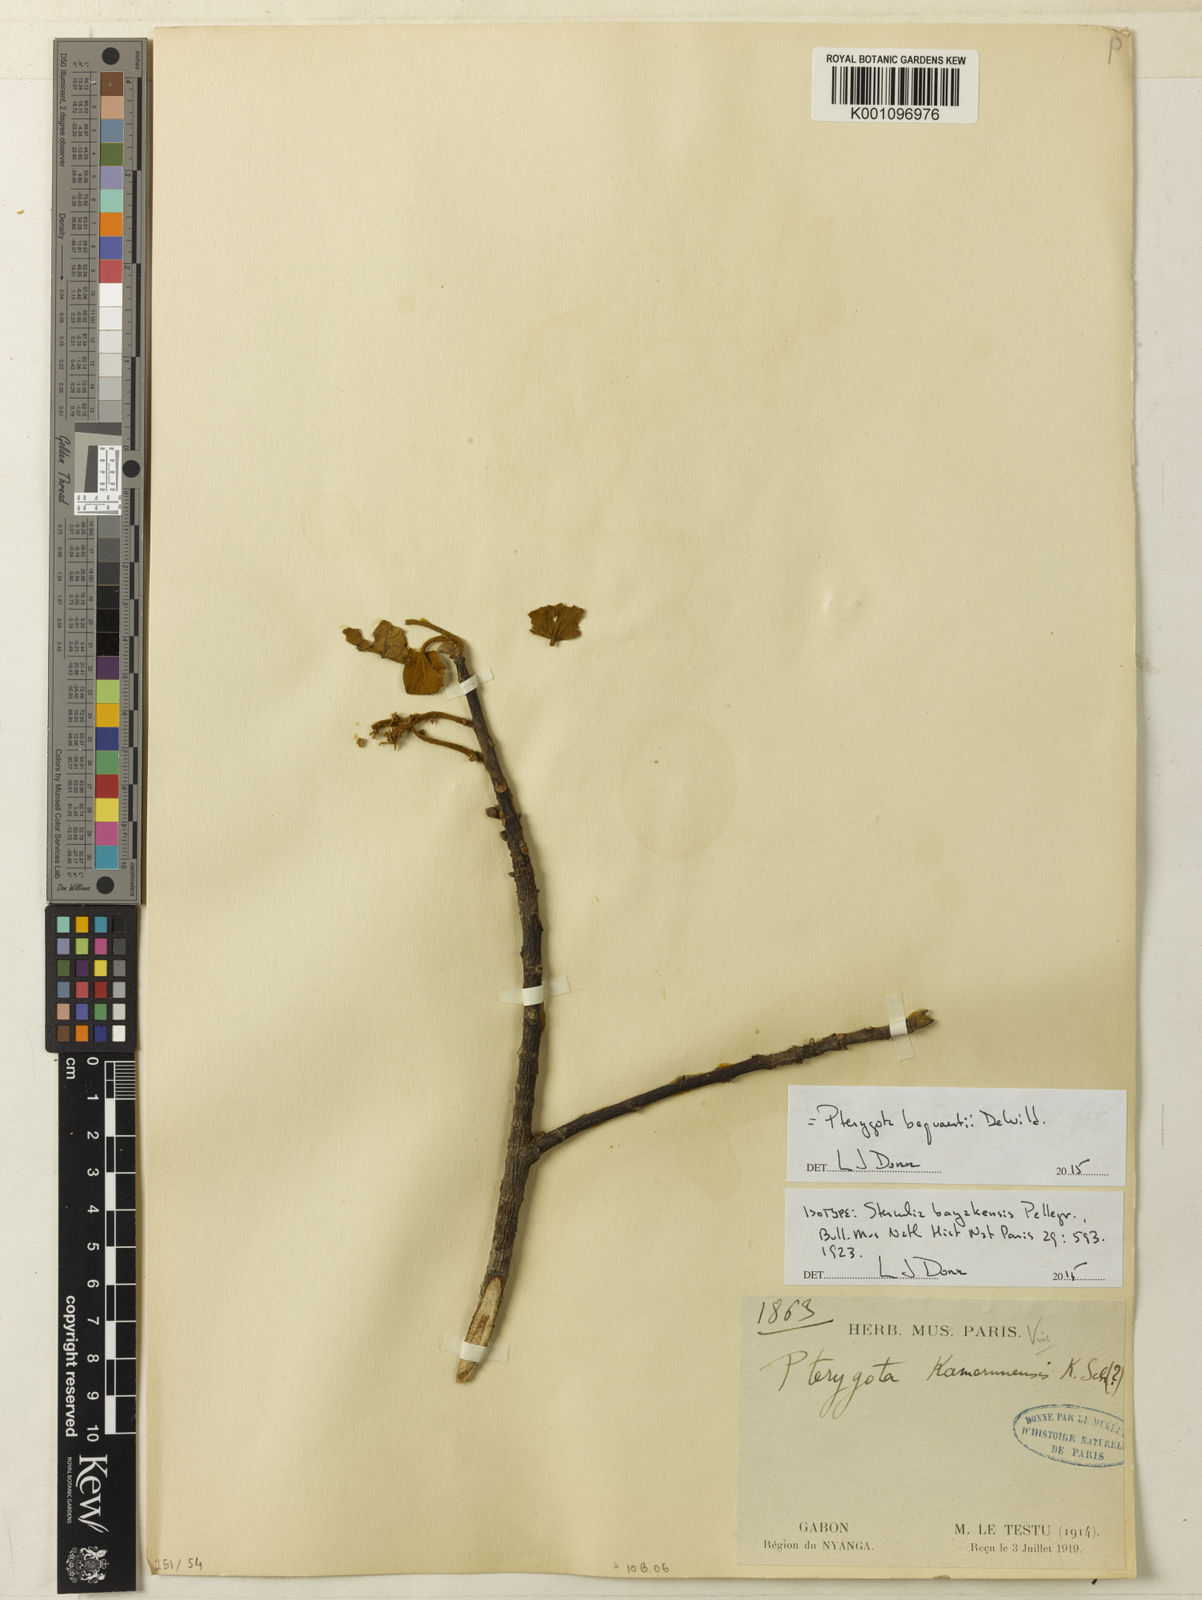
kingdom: Plantae
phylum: Tracheophyta
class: Magnoliopsida
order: Malvales
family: Malvaceae
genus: Pterygota
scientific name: Pterygota bequaertii
